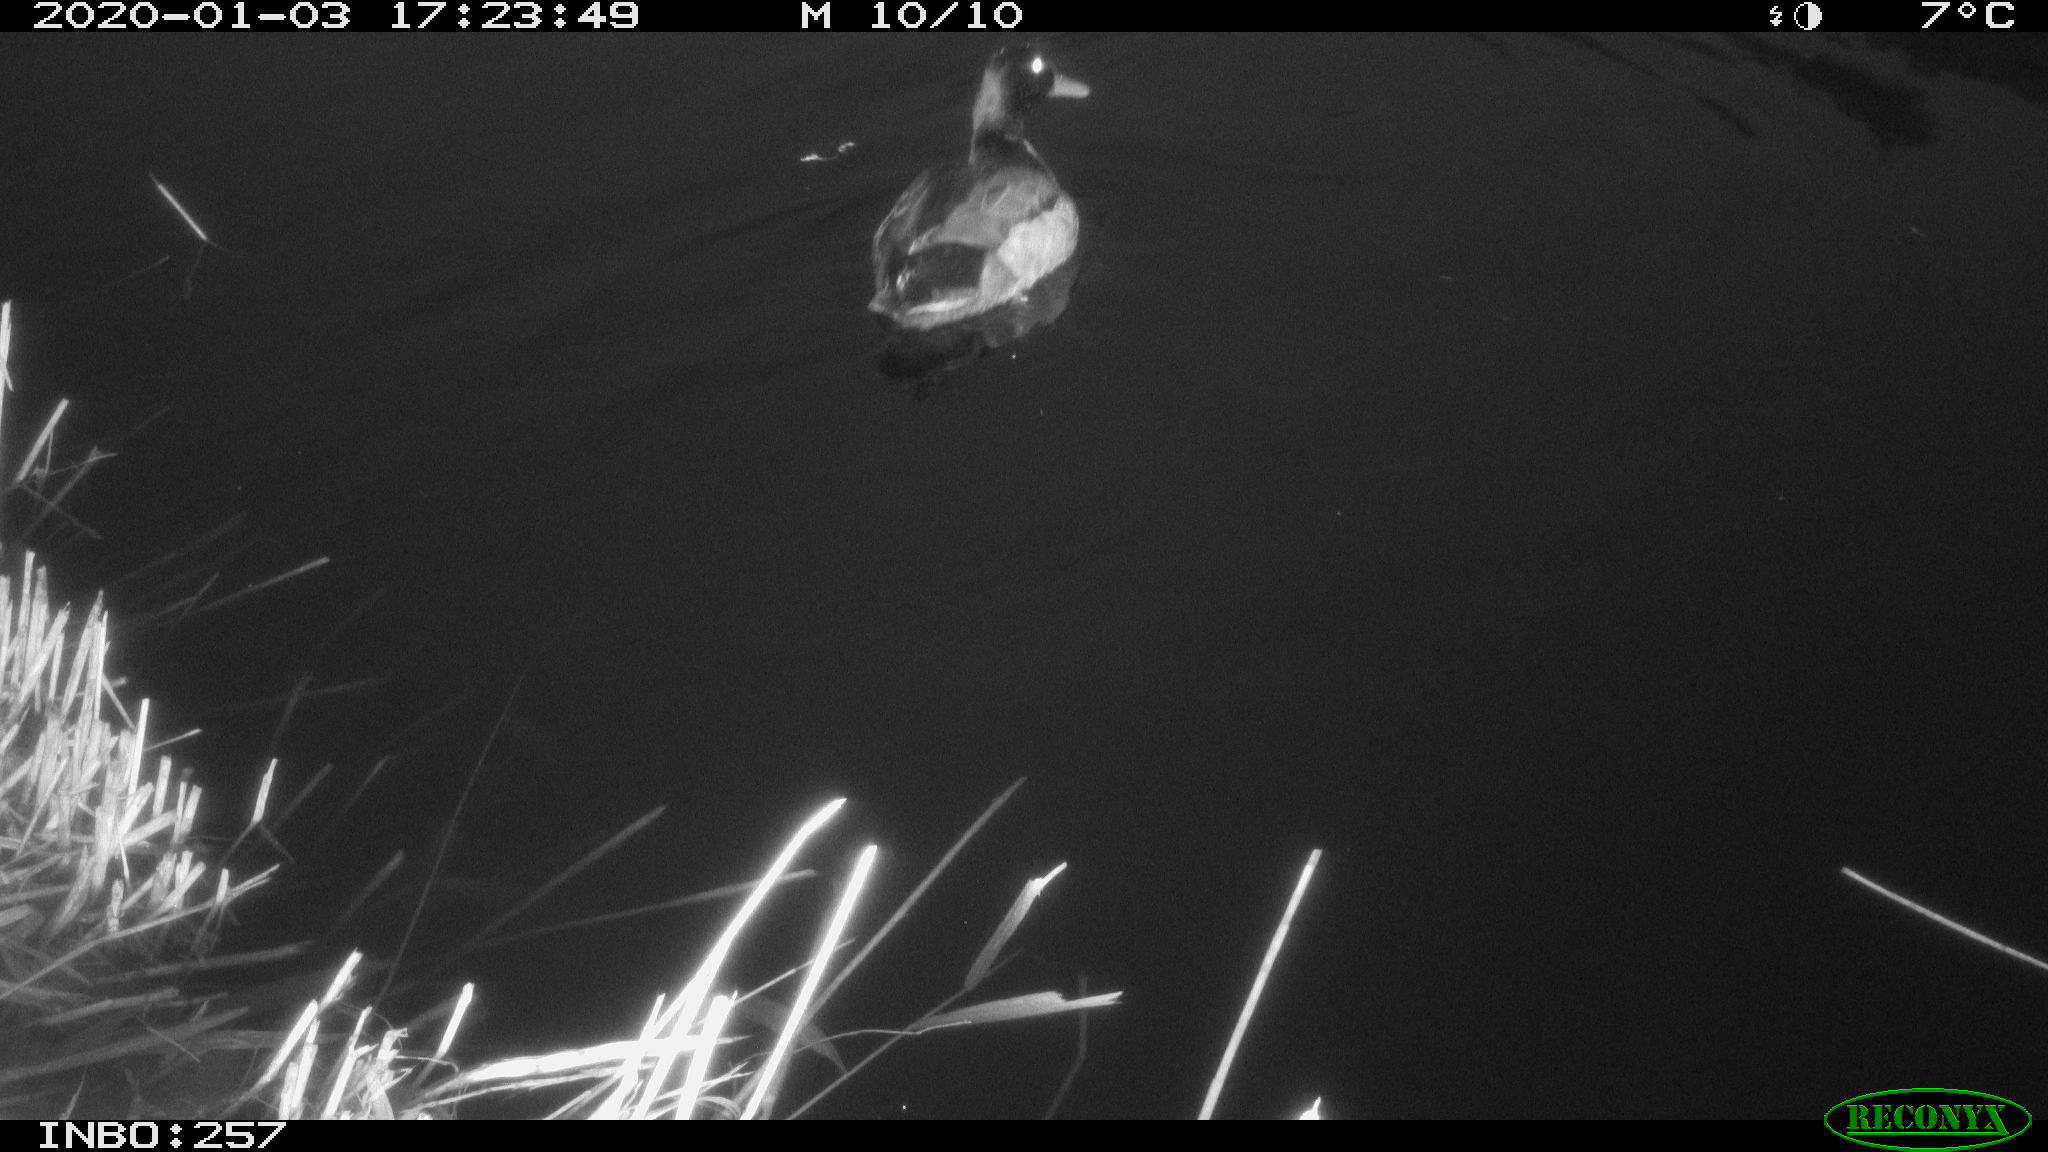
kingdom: Animalia
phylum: Chordata
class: Aves
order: Anseriformes
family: Anatidae
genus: Anas
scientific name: Anas platyrhynchos
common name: Mallard
